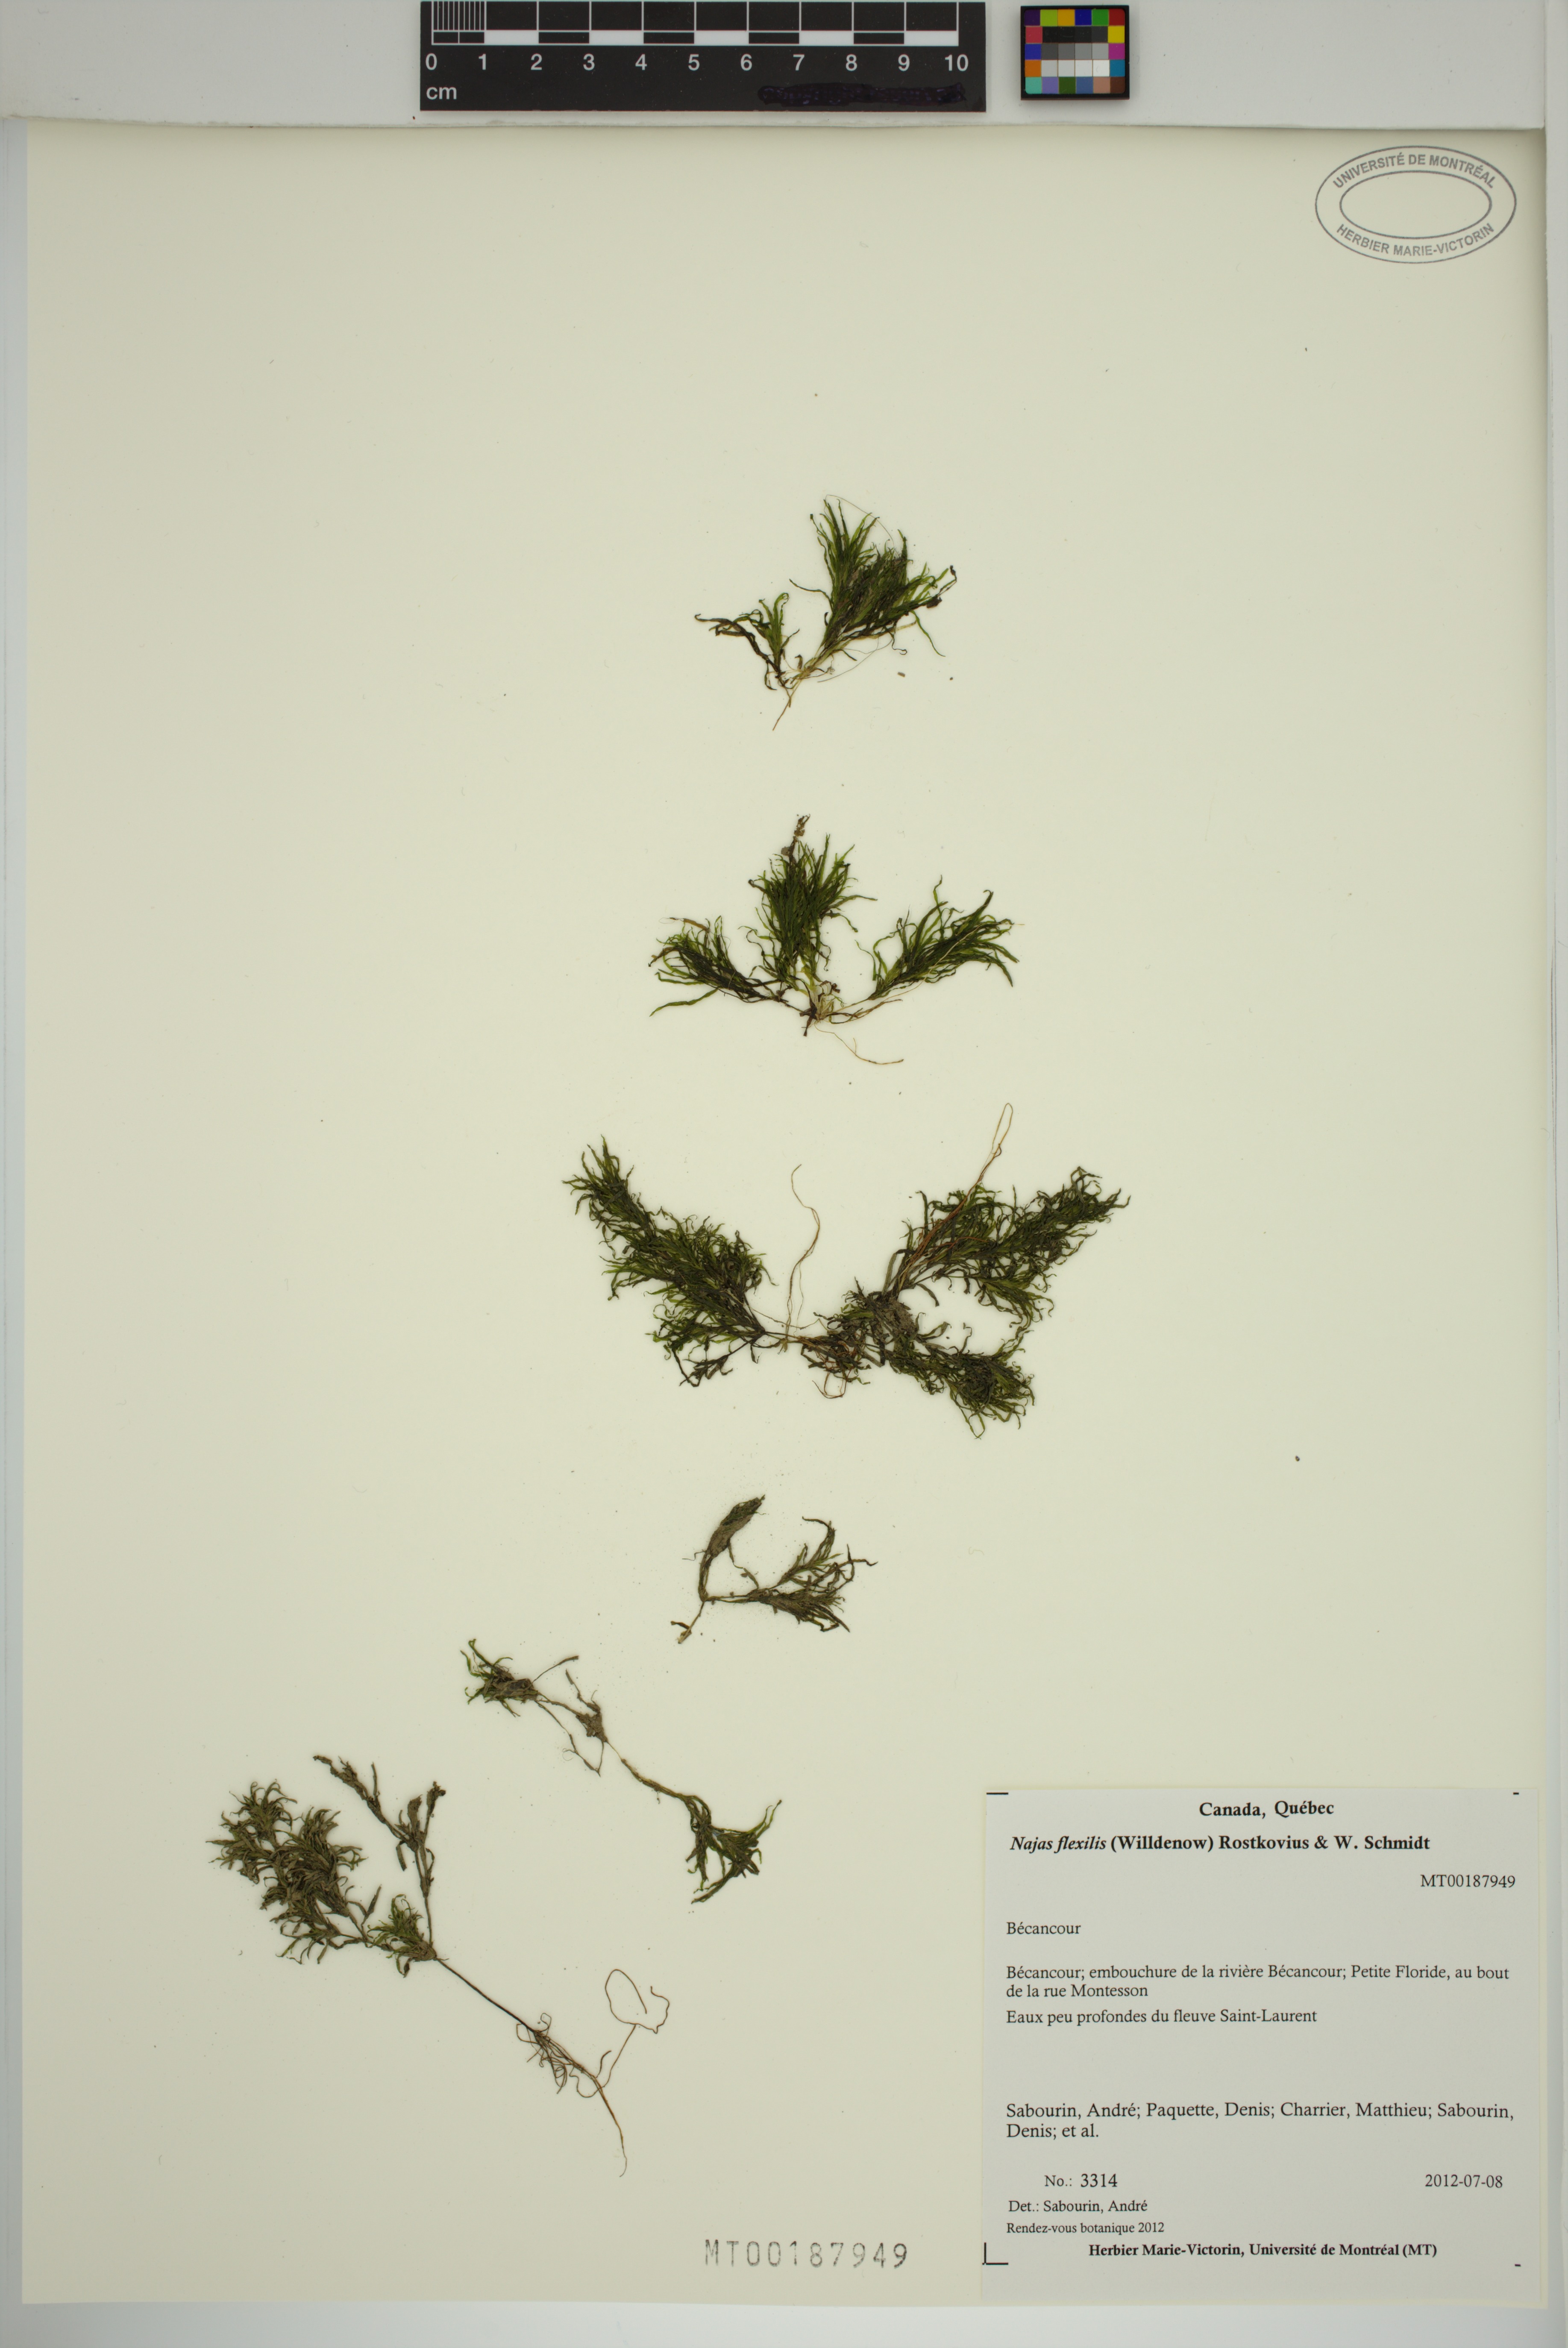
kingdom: Plantae
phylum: Tracheophyta
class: Liliopsida
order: Alismatales
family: Hydrocharitaceae
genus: Najas
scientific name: Najas flexilis
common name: Slender naiad
